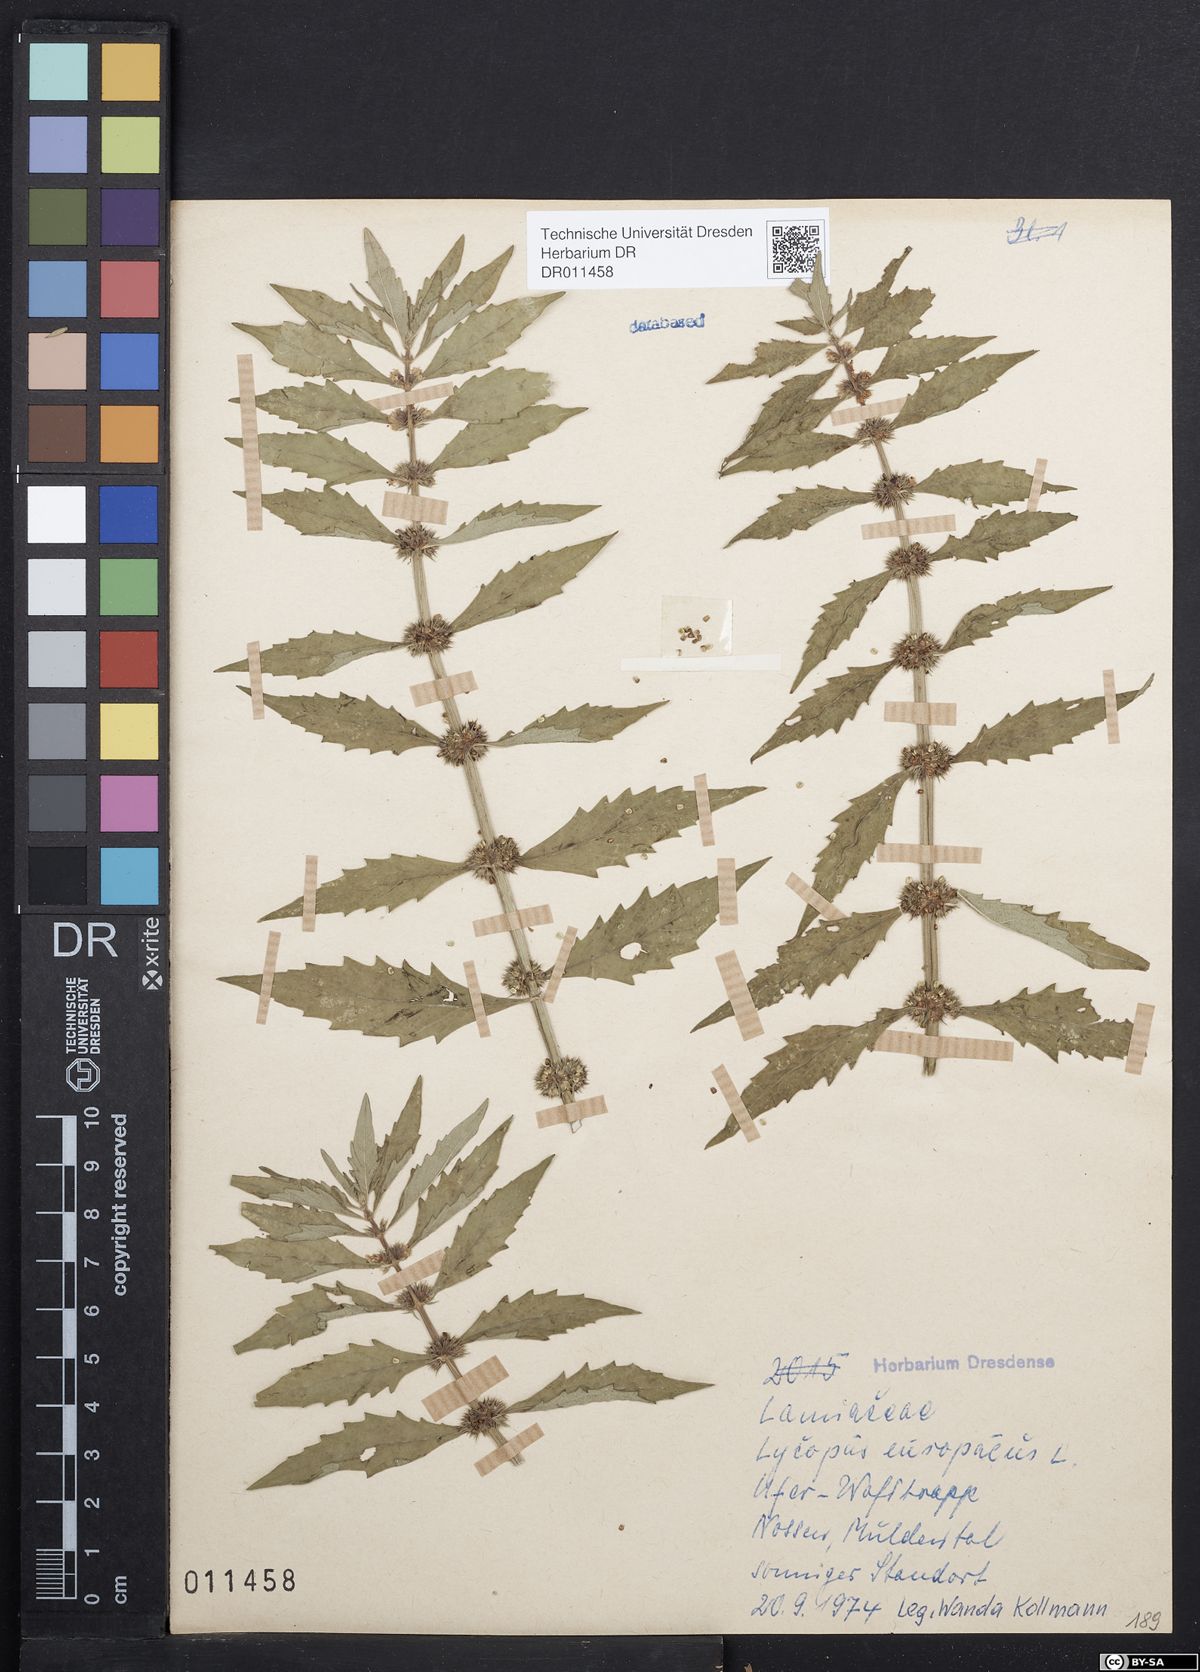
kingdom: Plantae
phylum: Tracheophyta
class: Magnoliopsida
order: Lamiales
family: Lamiaceae
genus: Lycopus
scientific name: Lycopus europaeus
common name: European bugleweed
